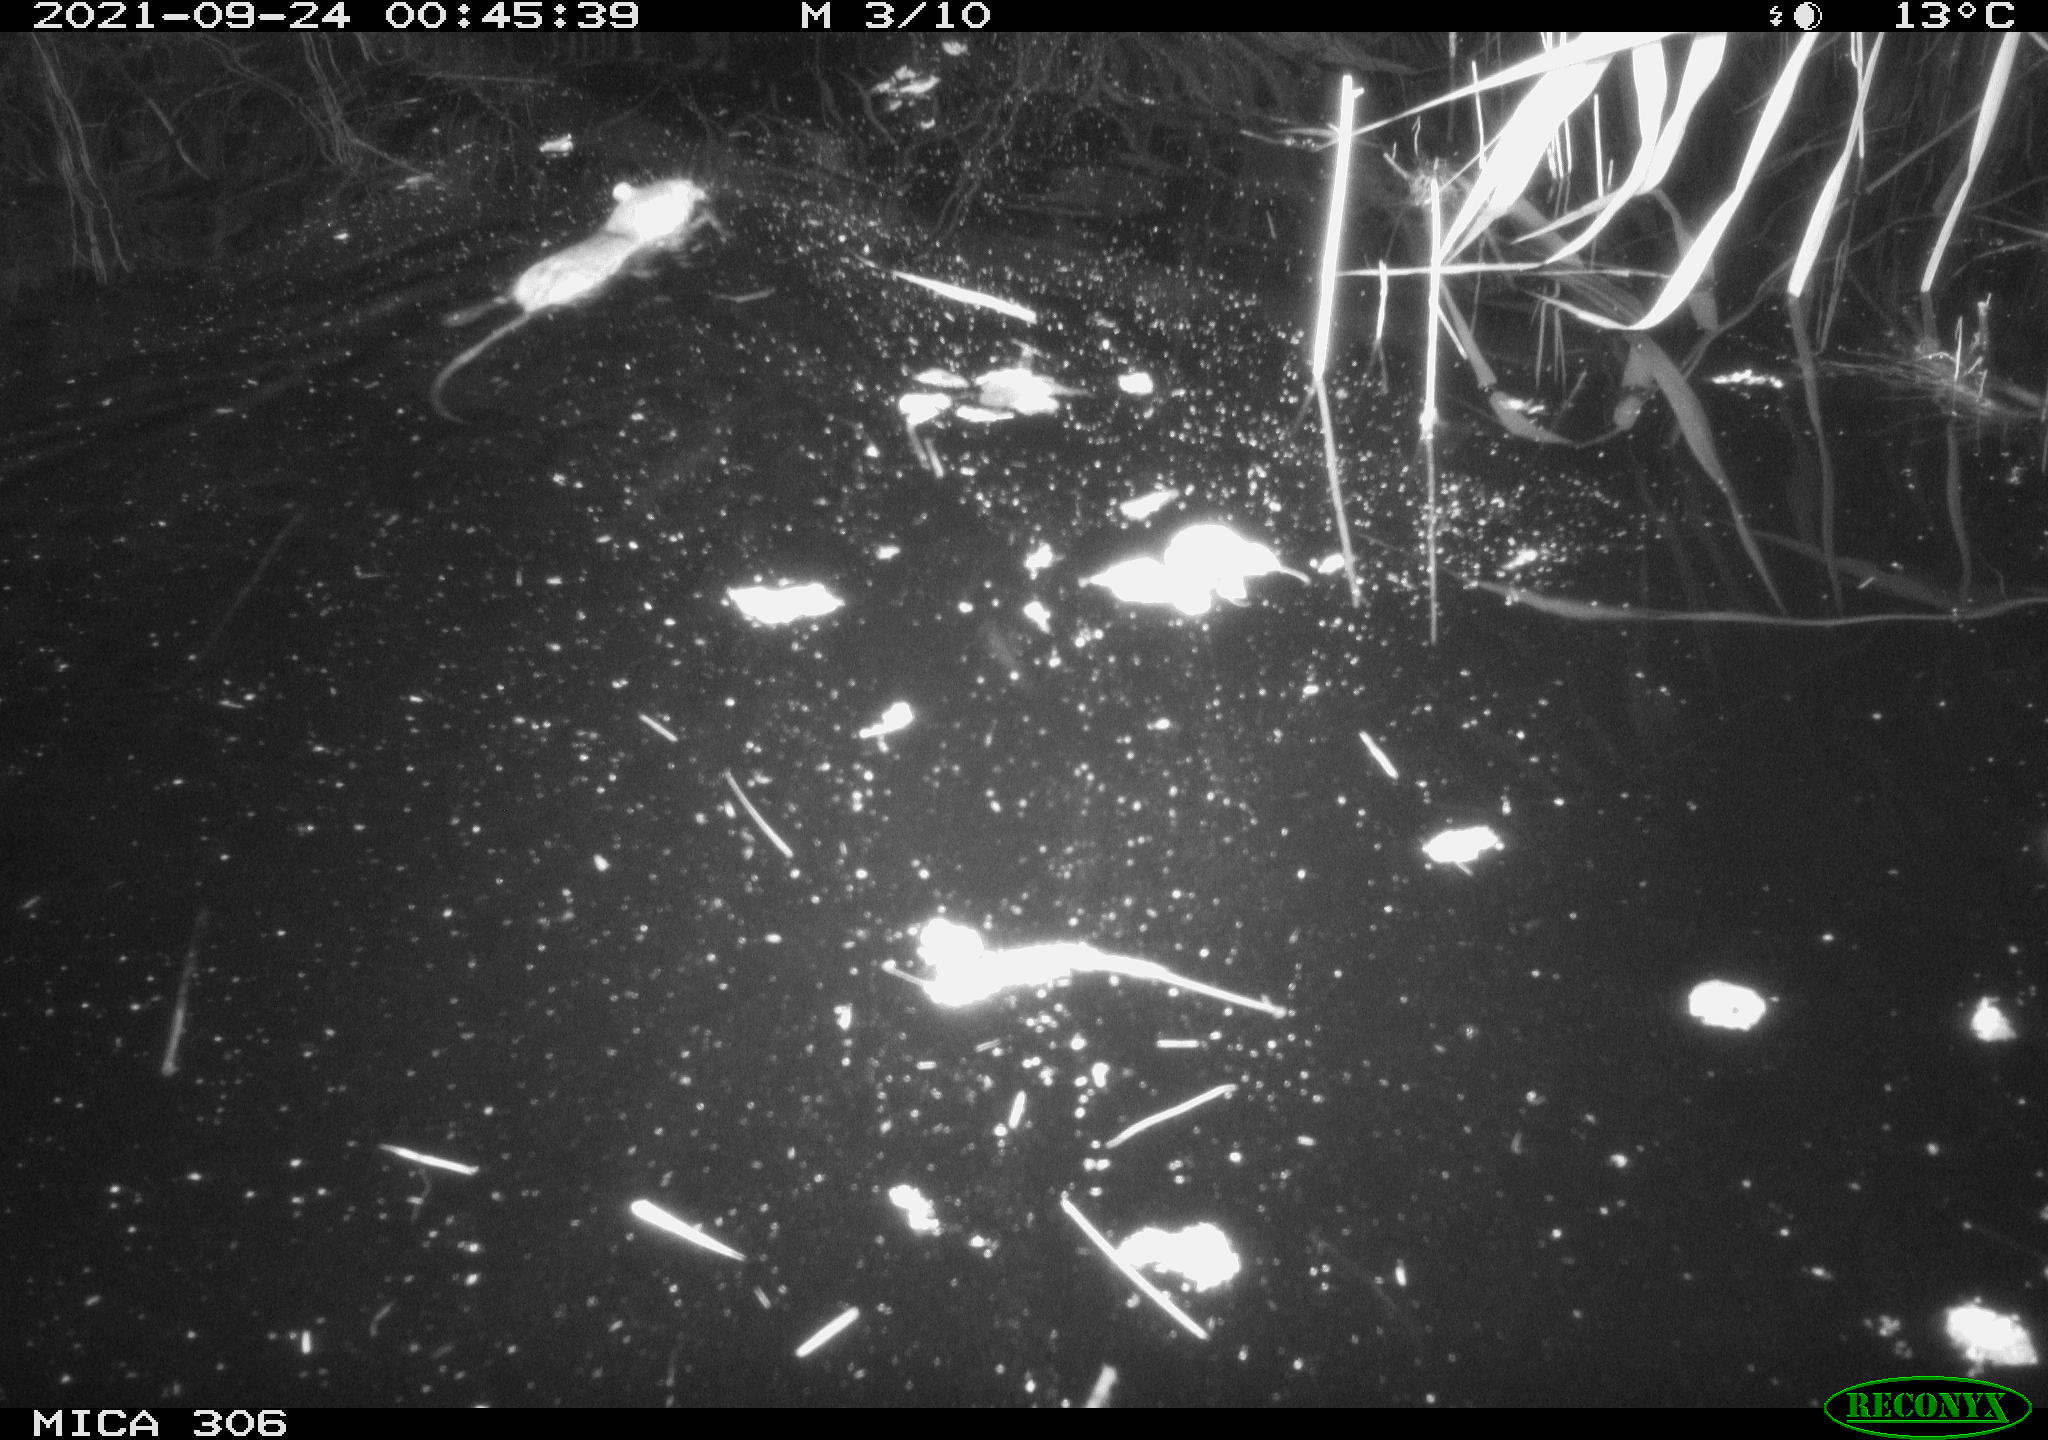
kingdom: Animalia
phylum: Chordata
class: Mammalia
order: Rodentia
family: Muridae
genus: Rattus
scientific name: Rattus norvegicus
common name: Brown rat
